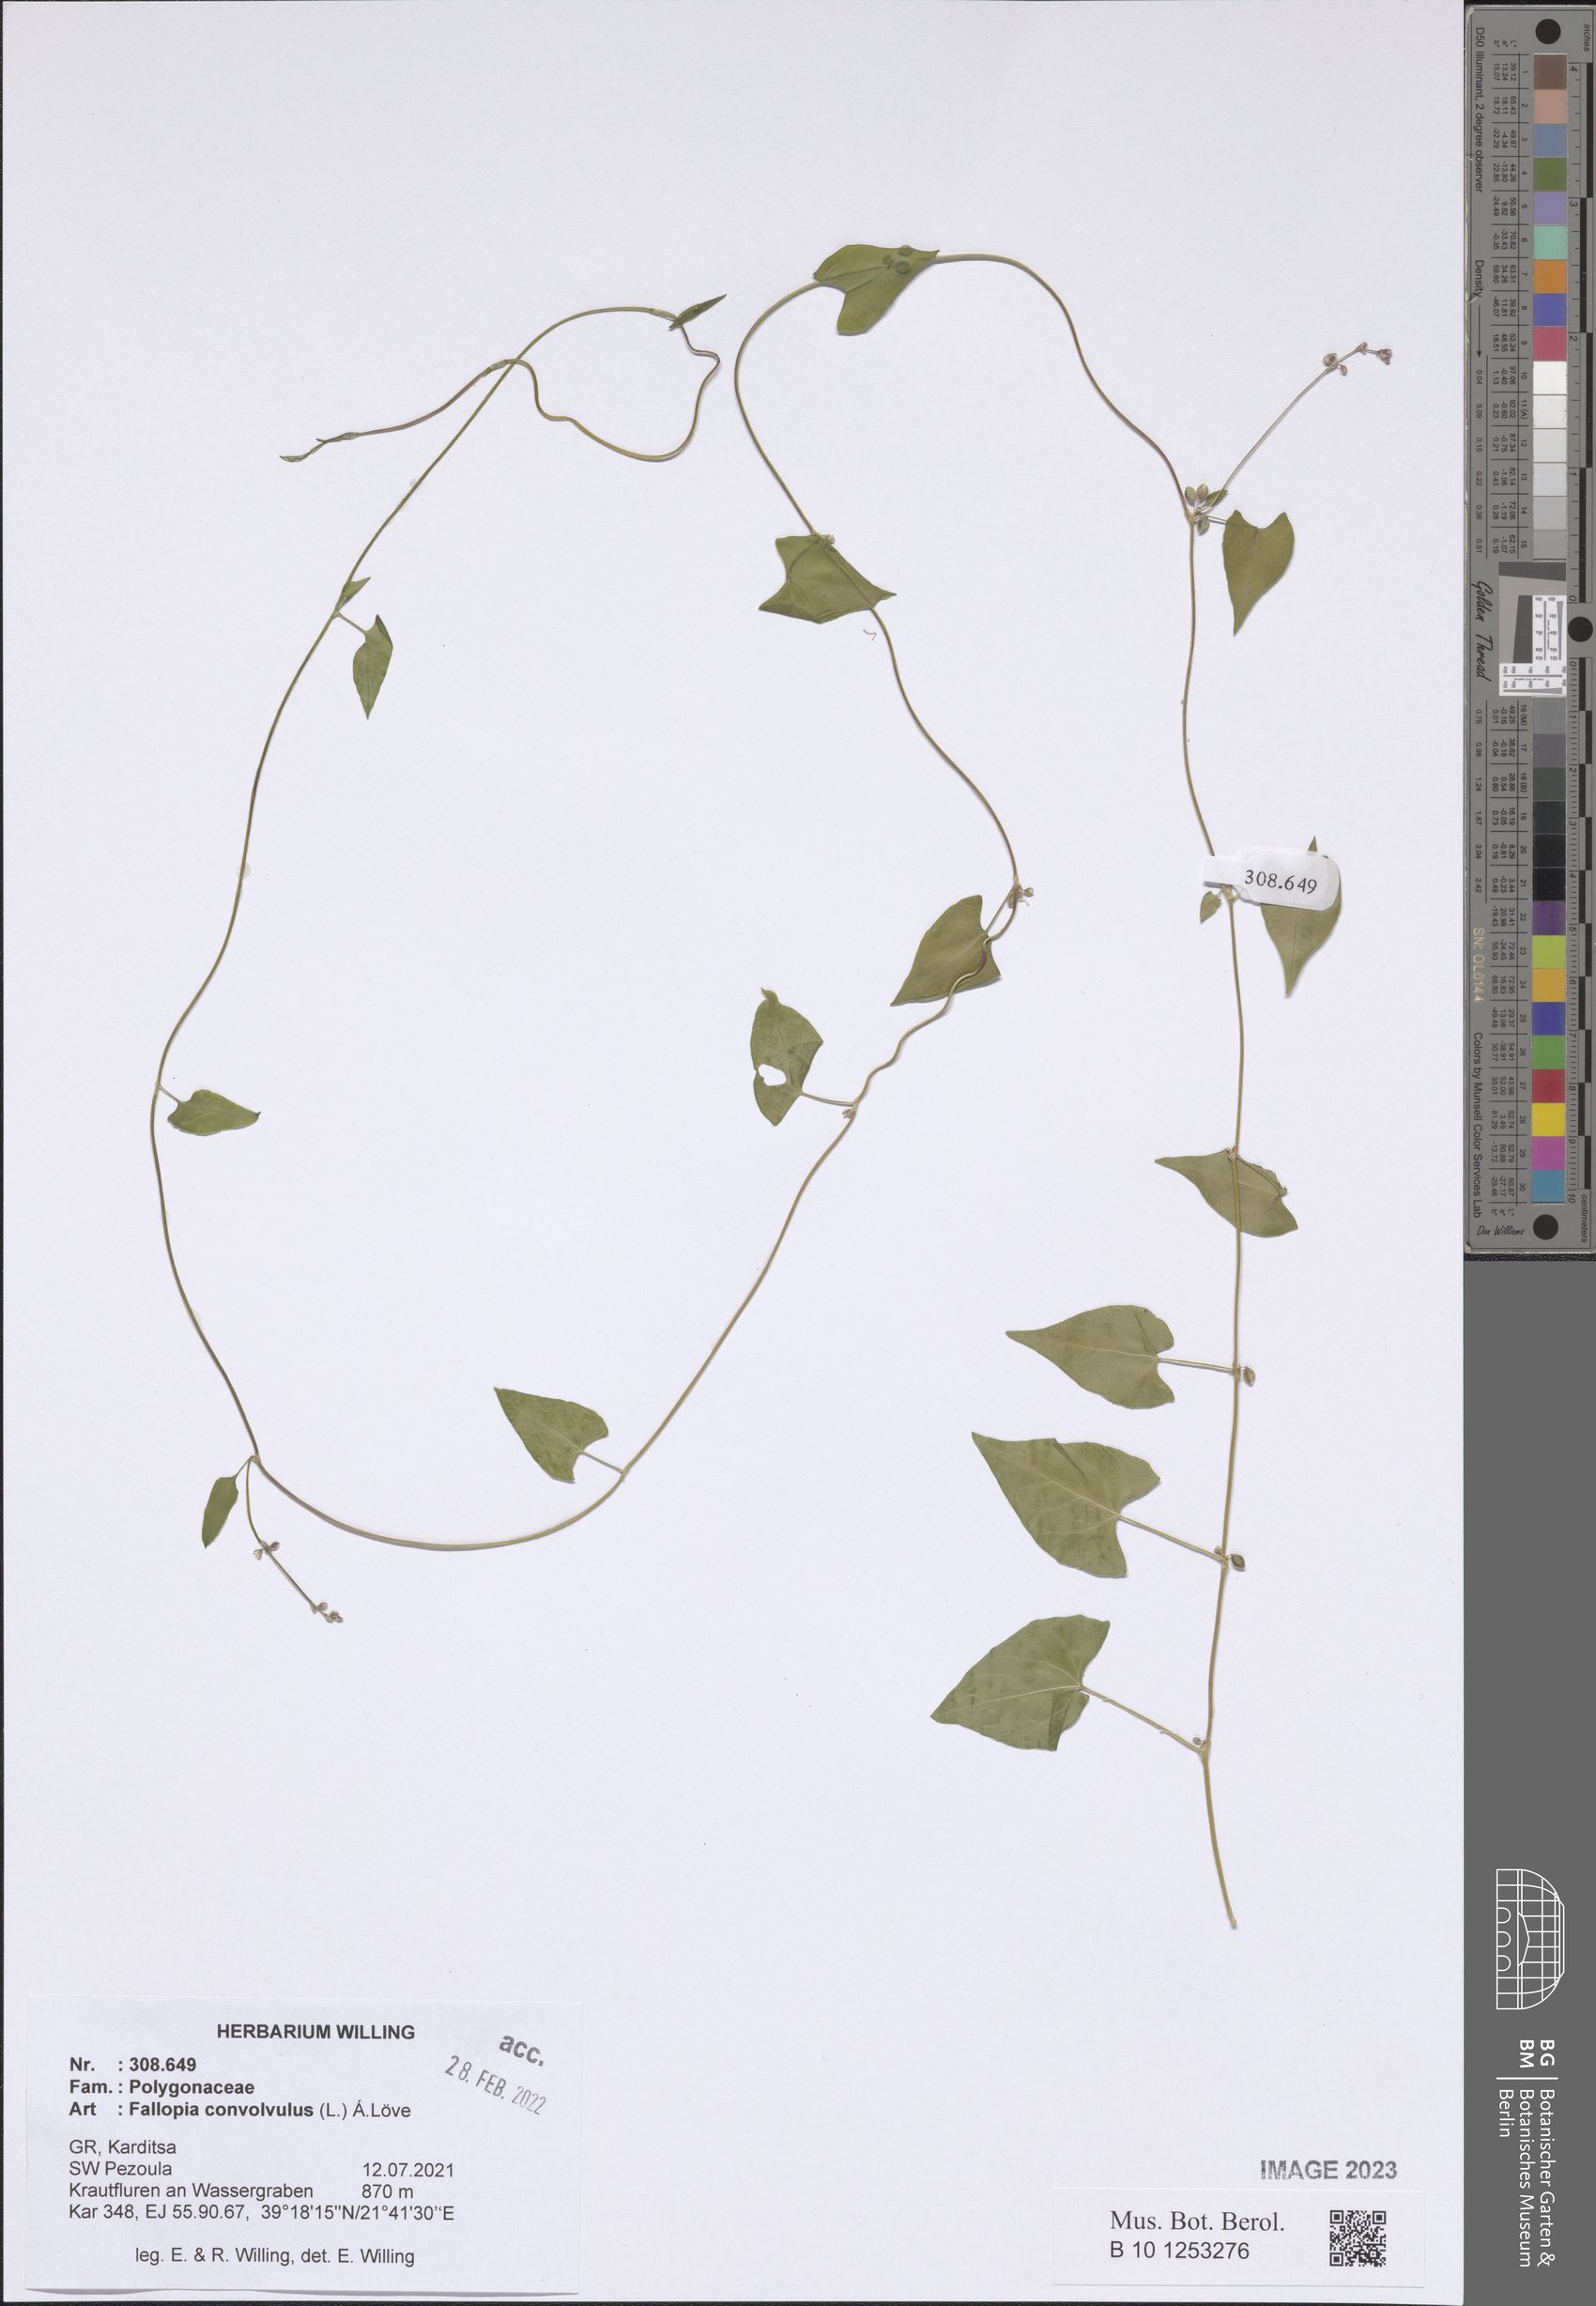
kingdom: Plantae
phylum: Tracheophyta
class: Magnoliopsida
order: Caryophyllales
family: Polygonaceae
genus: Fallopia
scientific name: Fallopia convolvulus
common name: Black bindweed
